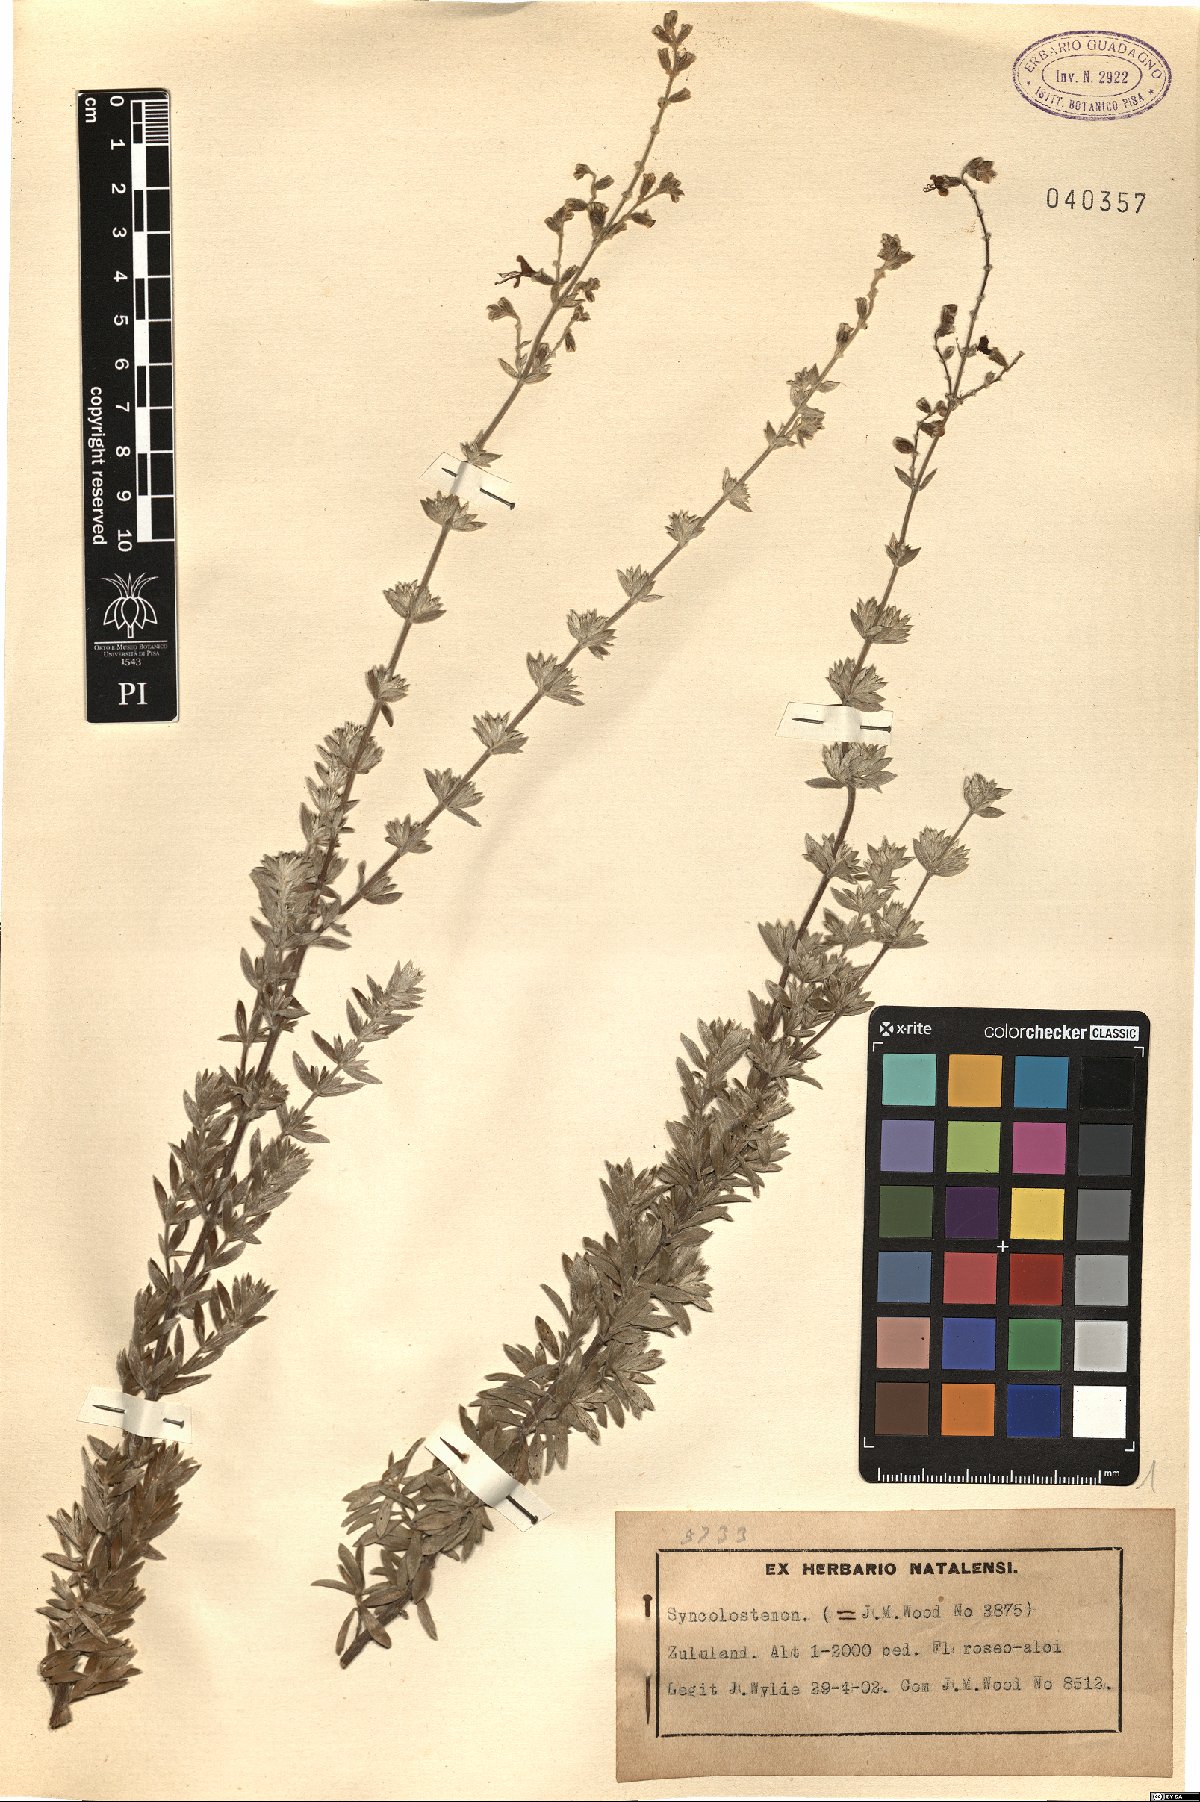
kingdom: Plantae
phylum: Tracheophyta
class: Magnoliopsida
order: Lamiales
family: Lamiaceae
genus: Syncolostemon
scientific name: Syncolostemon
